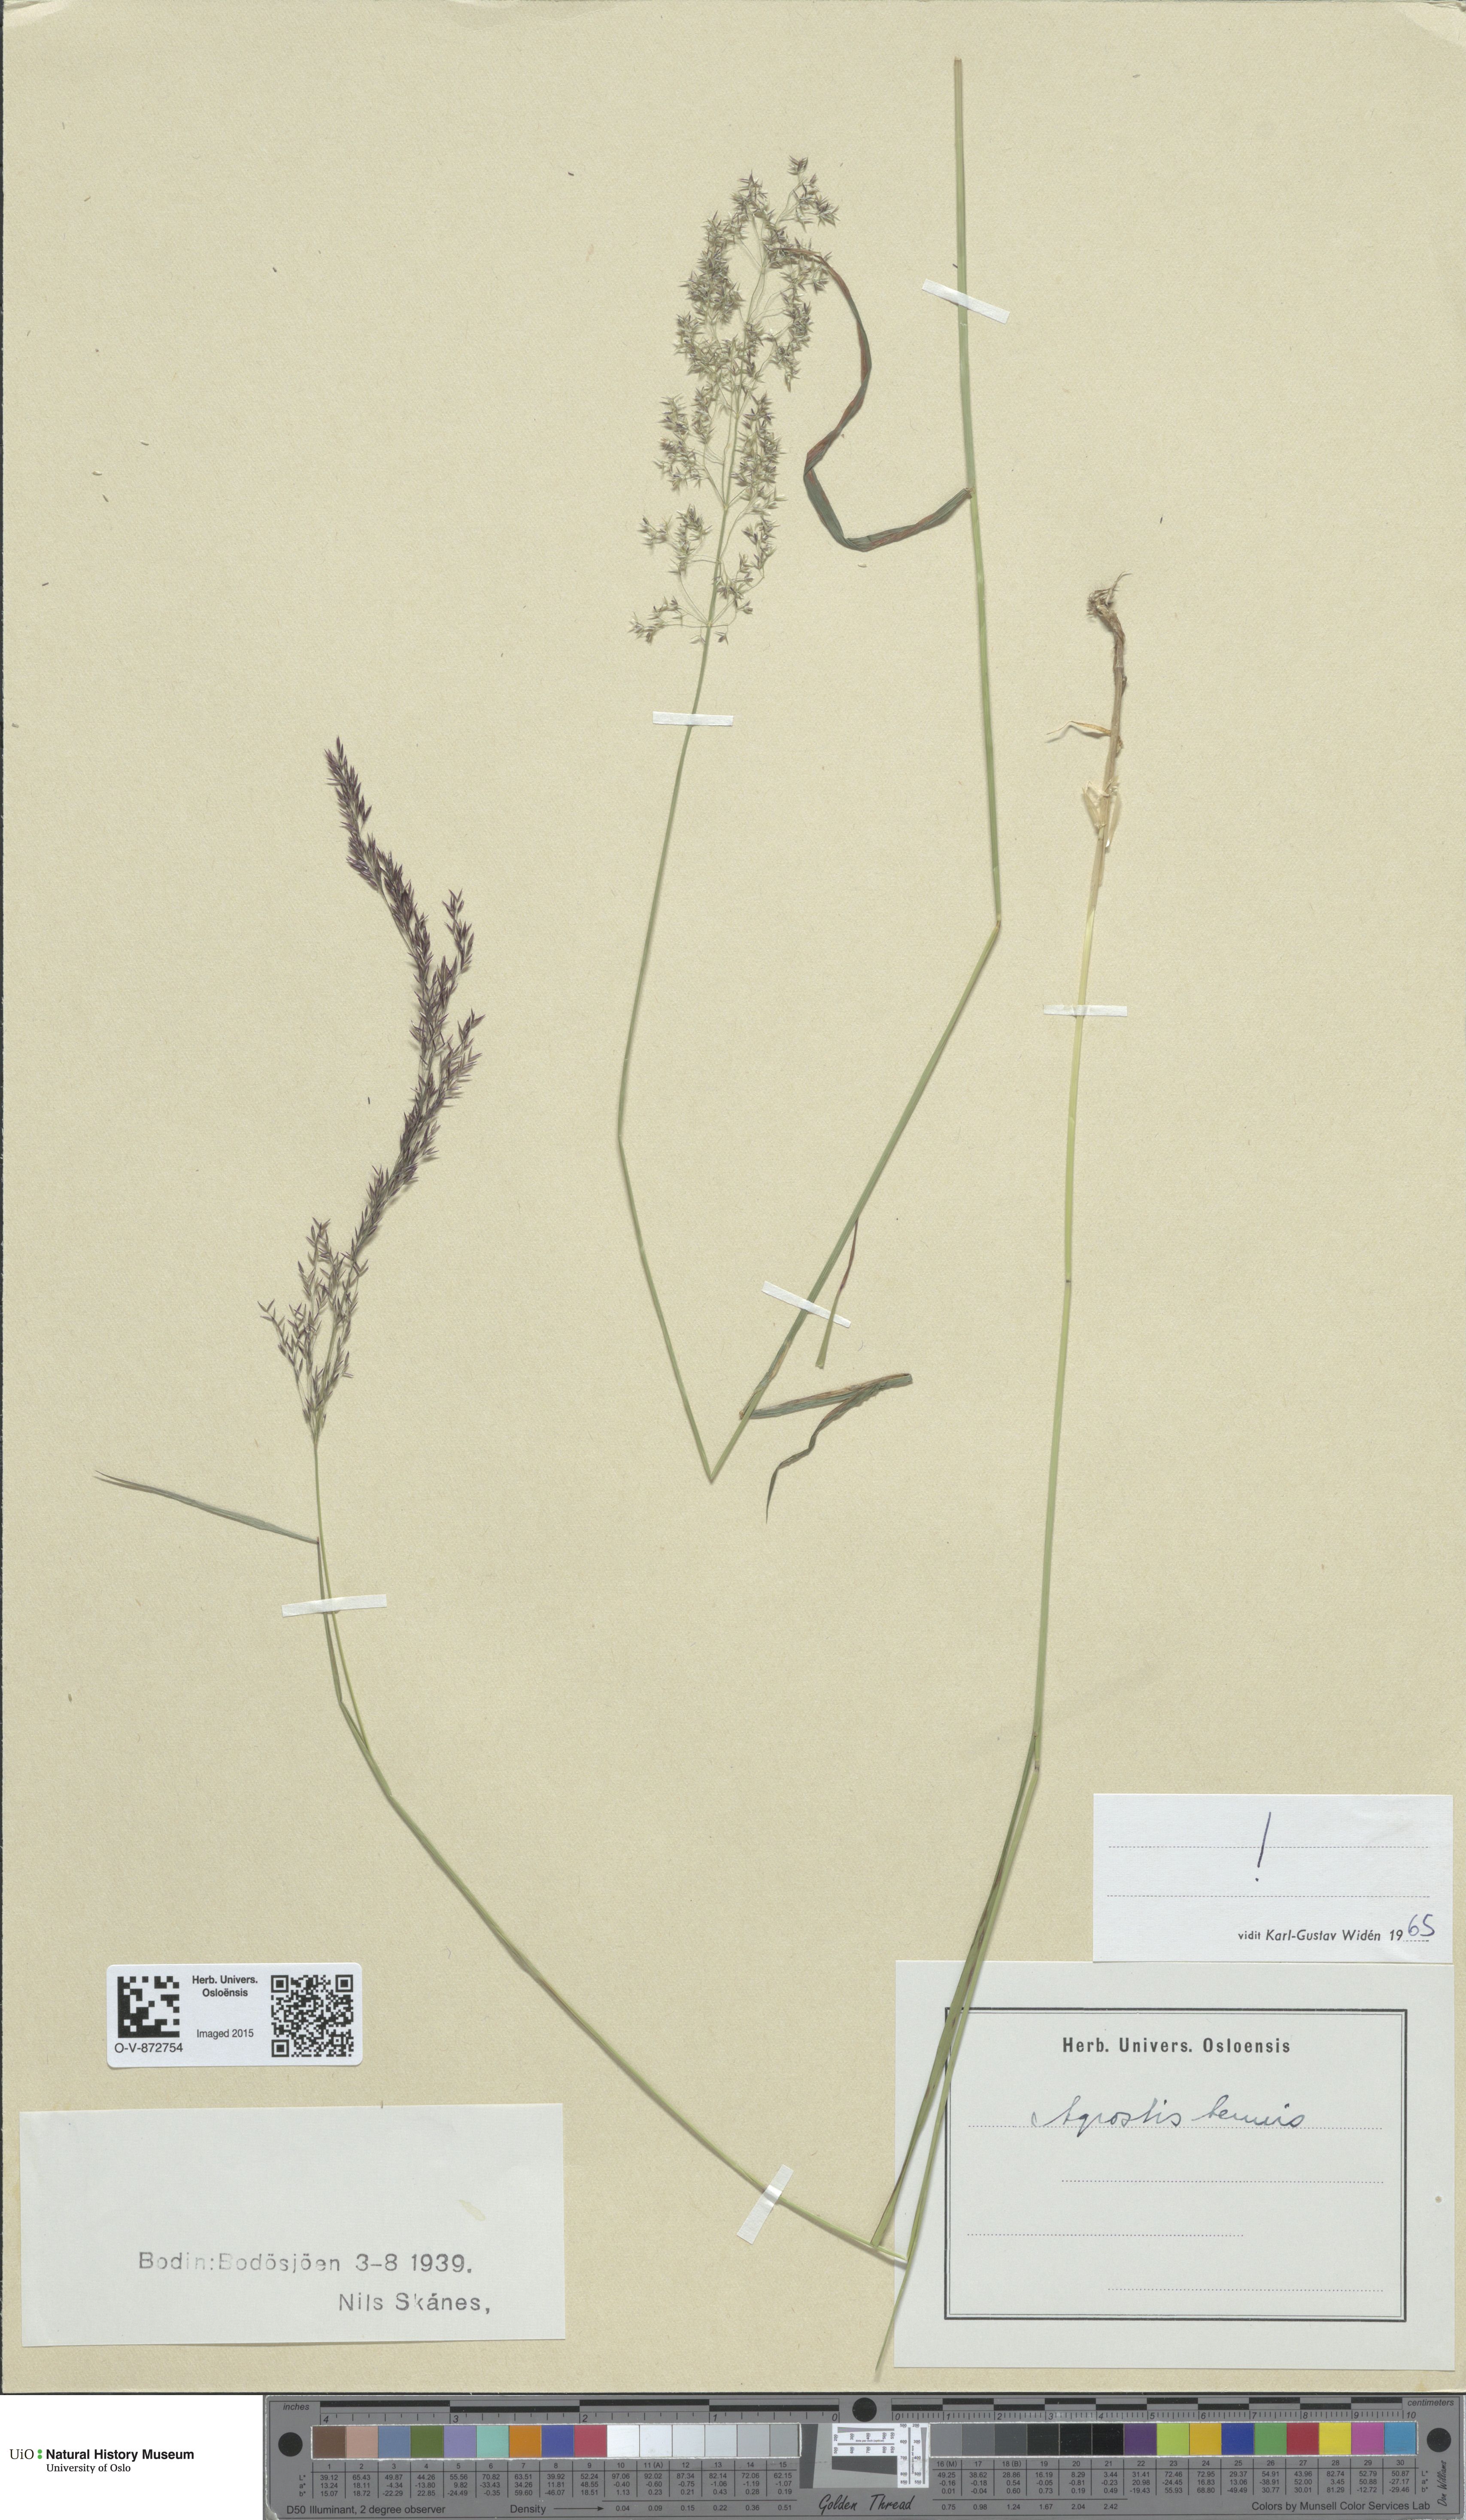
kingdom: Plantae
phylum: Tracheophyta
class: Liliopsida
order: Poales
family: Poaceae
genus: Agrostis
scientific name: Agrostis capillaris
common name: Colonial bentgrass
